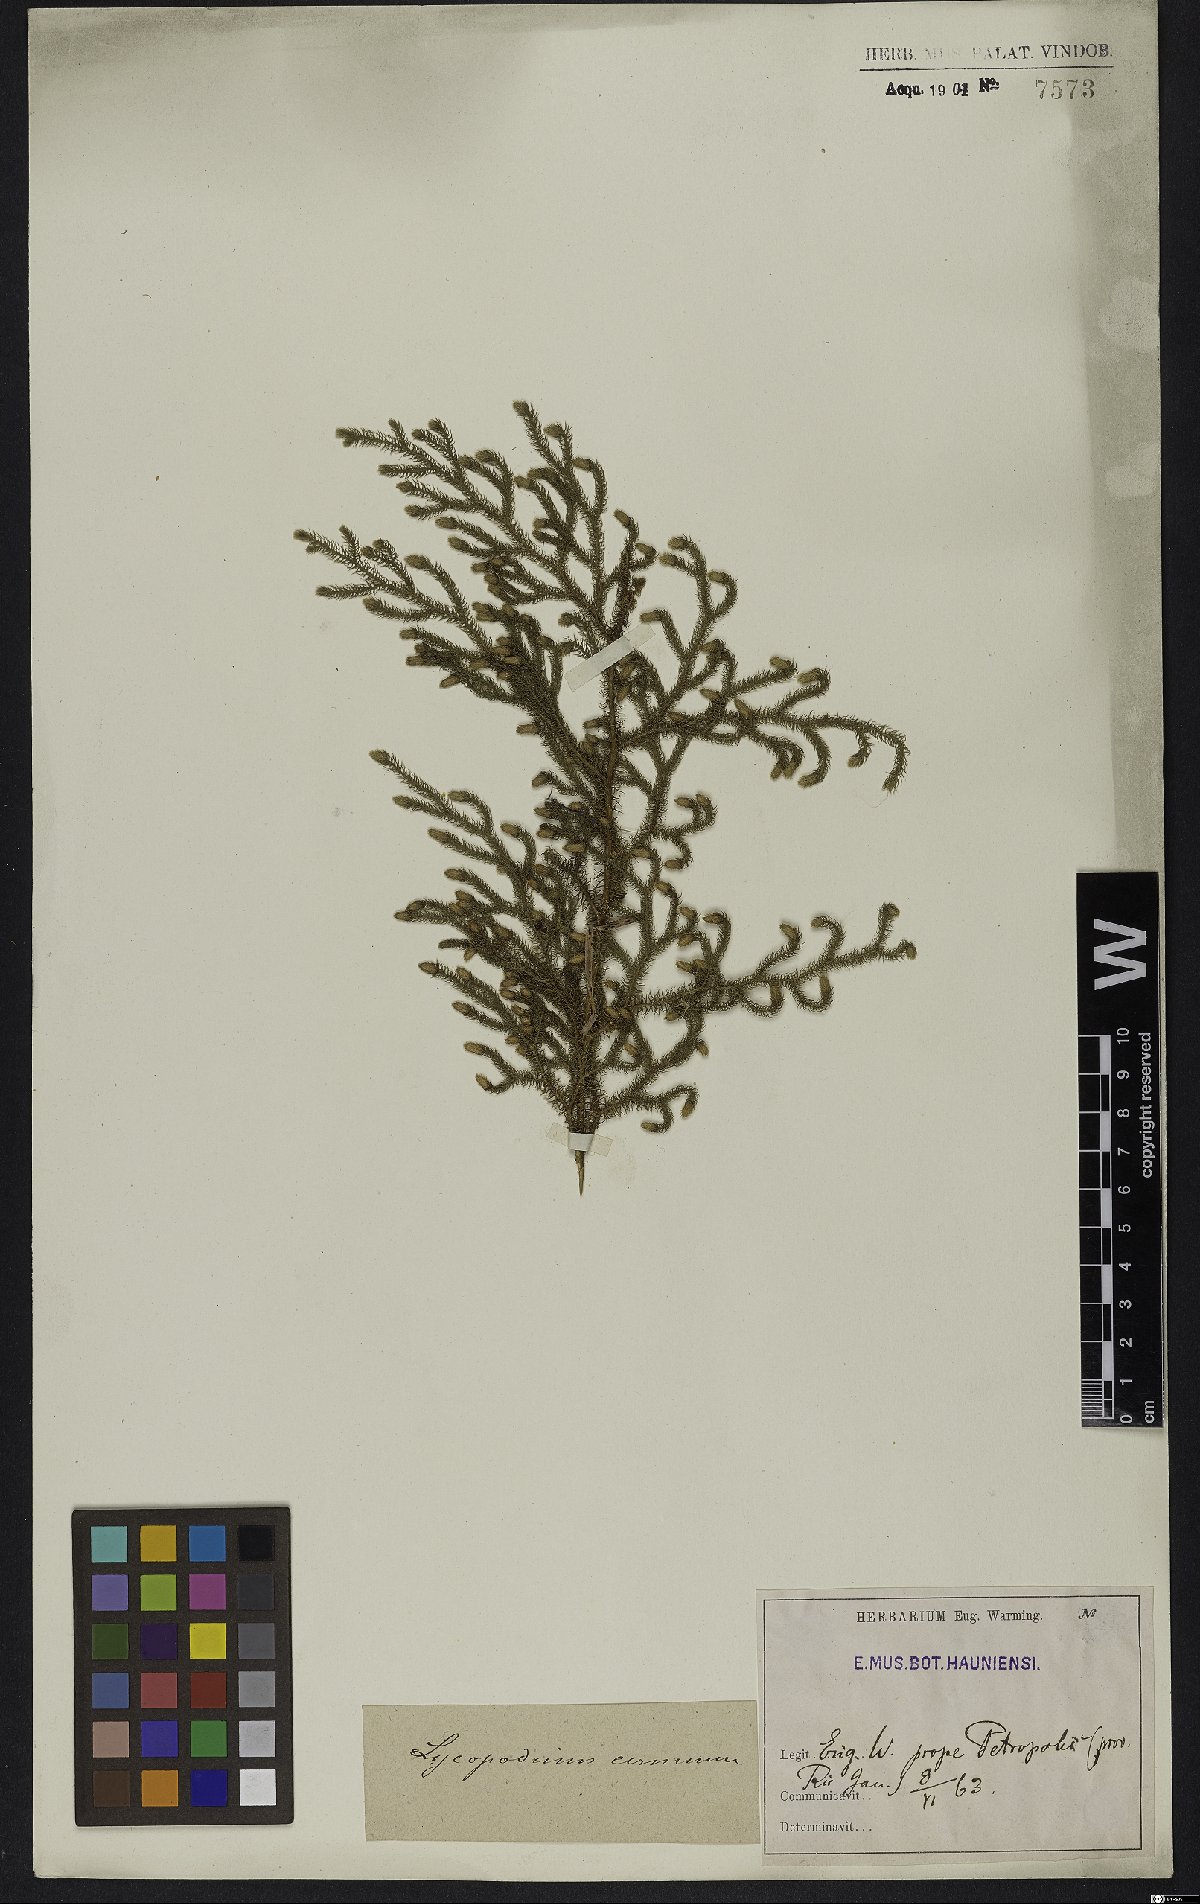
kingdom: Plantae
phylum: Tracheophyta
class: Lycopodiopsida
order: Lycopodiales
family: Lycopodiaceae
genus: Palhinhaea
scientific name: Palhinhaea cernua
